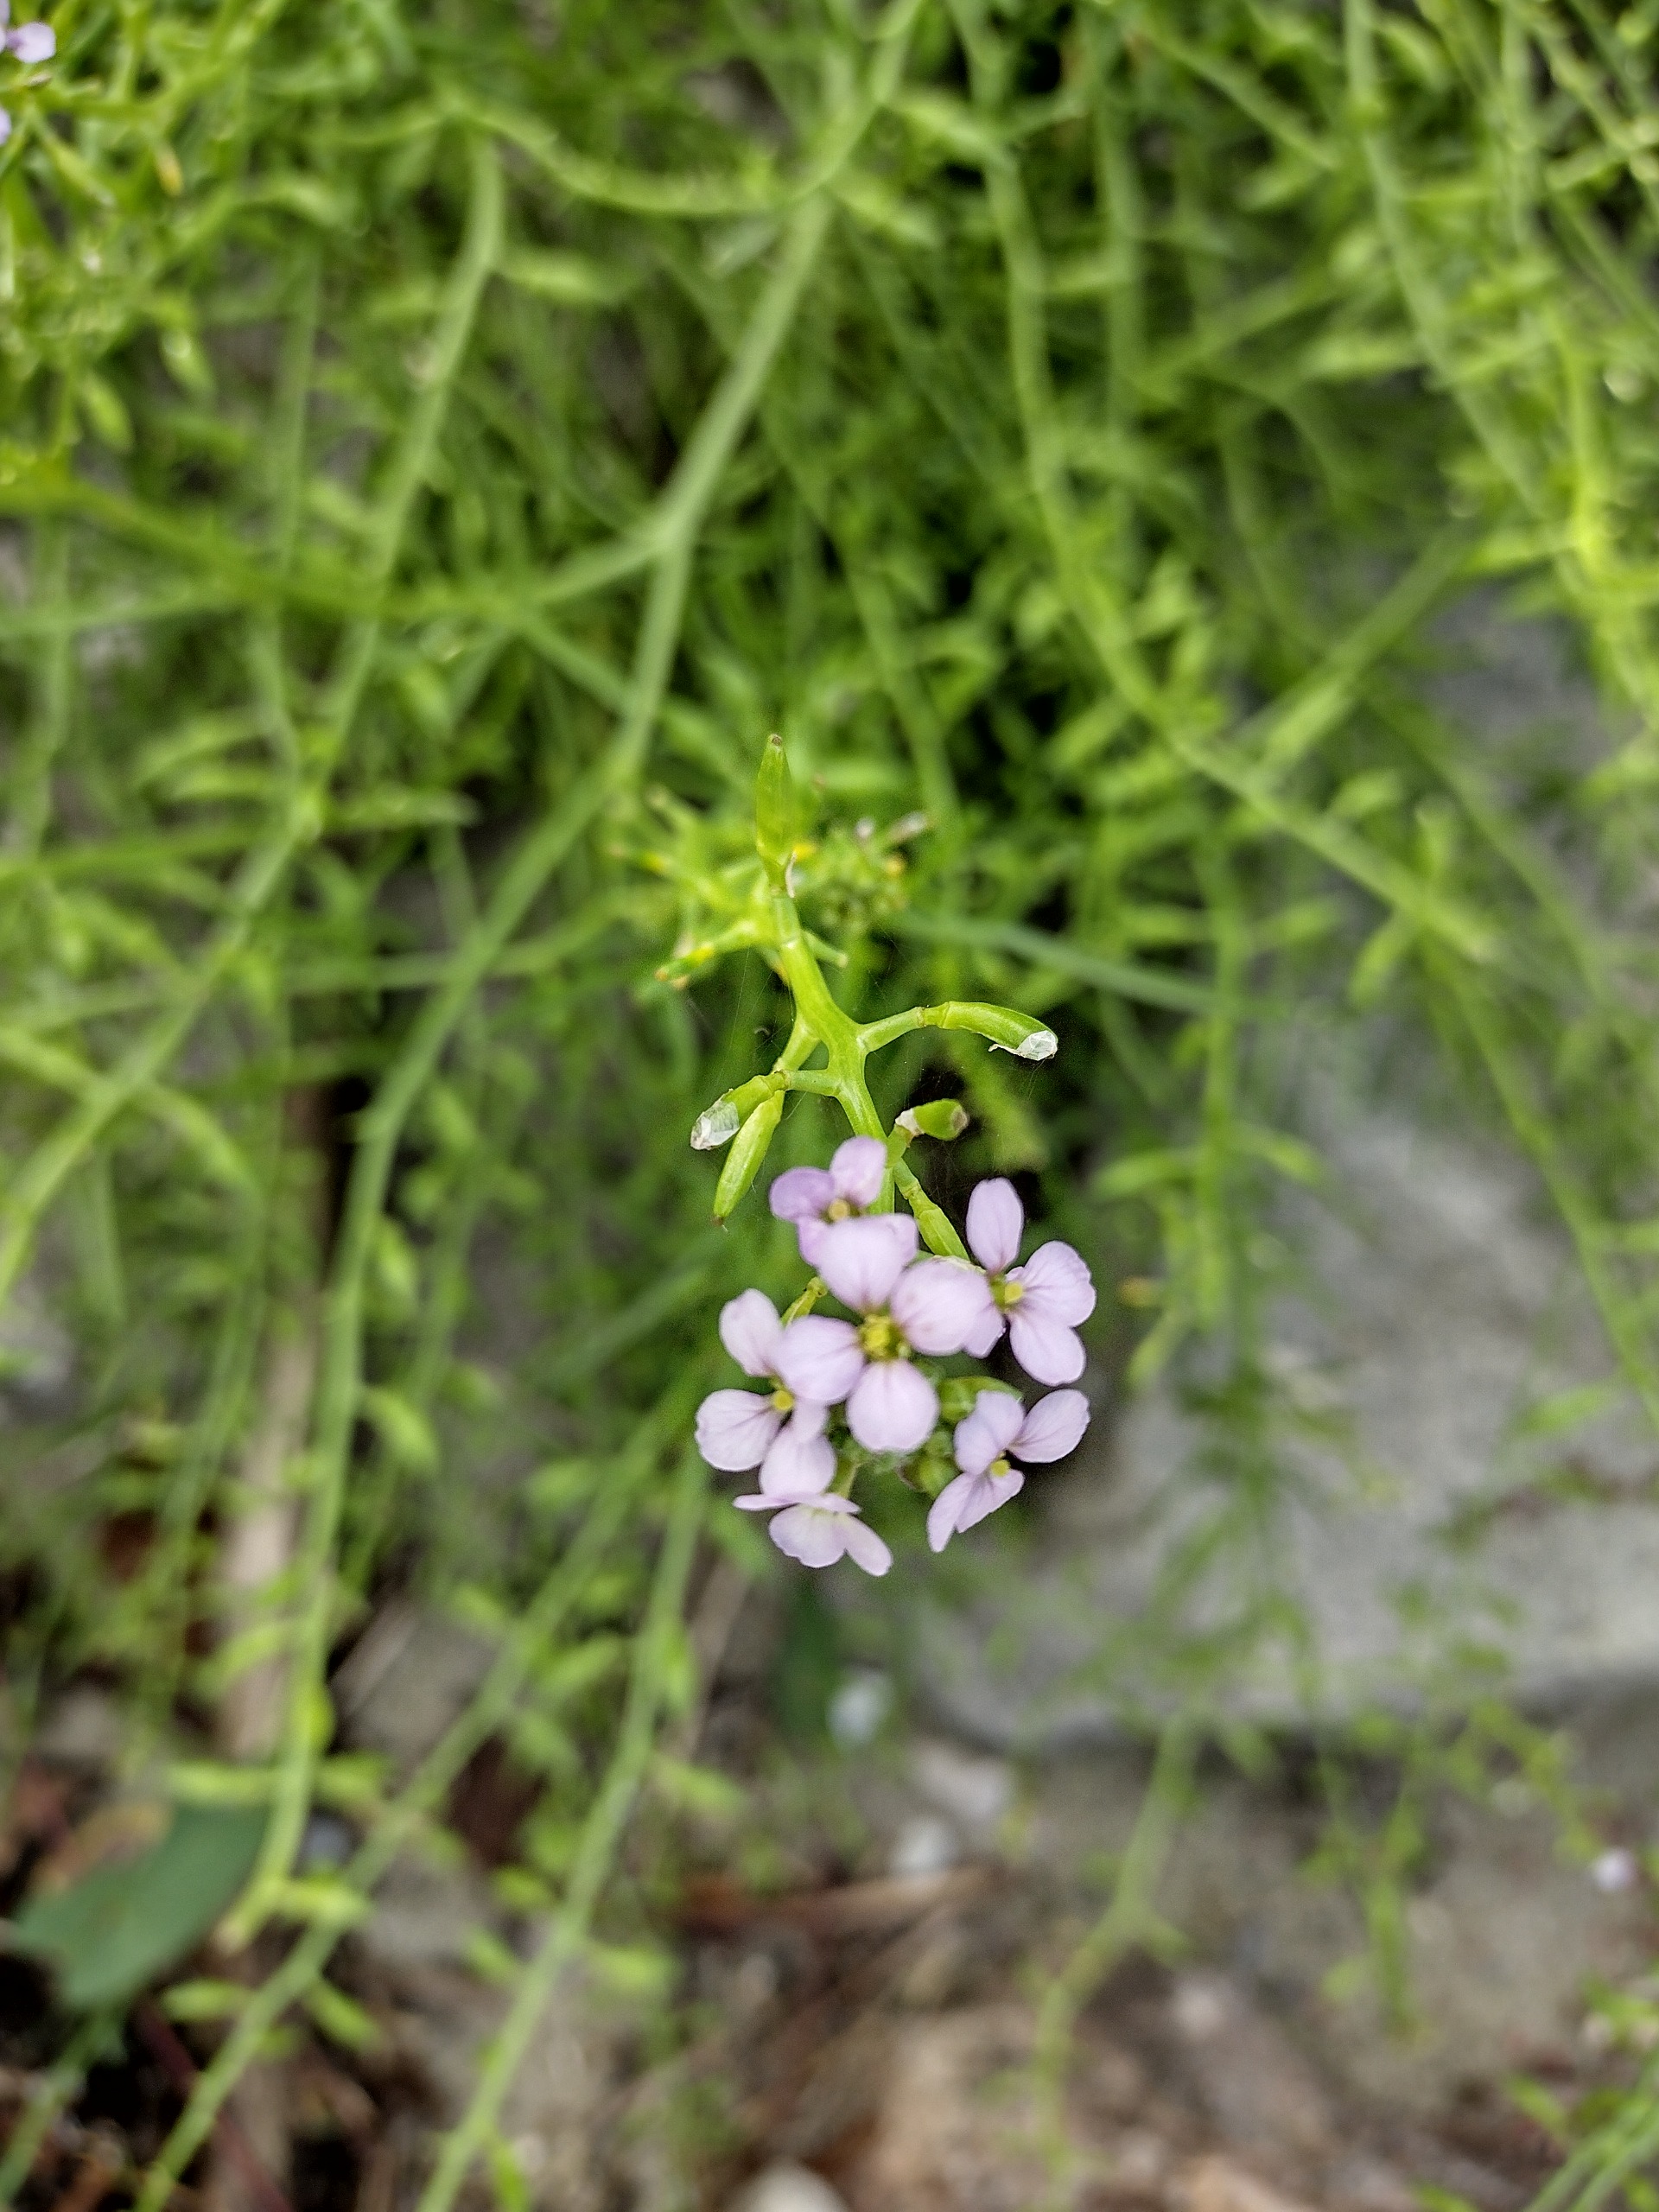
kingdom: Plantae
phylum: Tracheophyta
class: Magnoliopsida
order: Brassicales
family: Brassicaceae
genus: Cakile
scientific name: Cakile maritima
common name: Strandsennep
